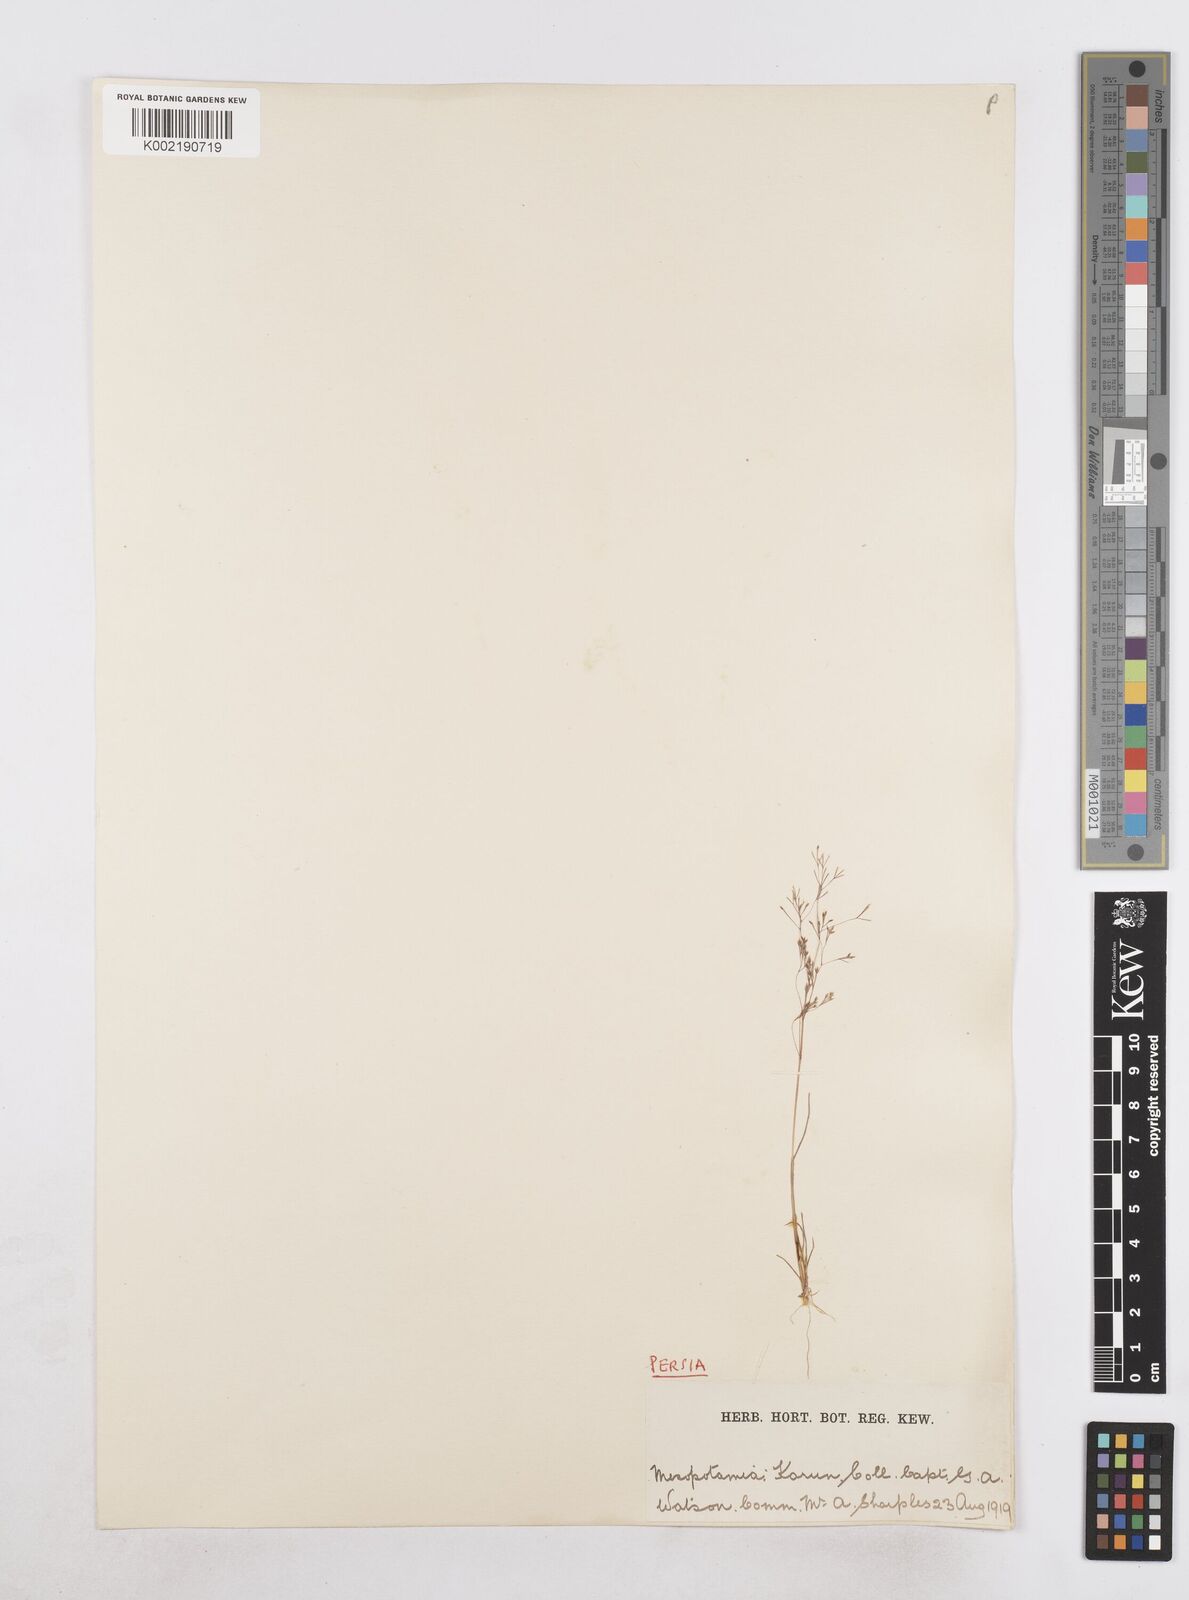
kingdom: Plantae
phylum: Tracheophyta
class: Liliopsida
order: Poales
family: Poaceae
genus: Sphenopus
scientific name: Sphenopus divaricatus
